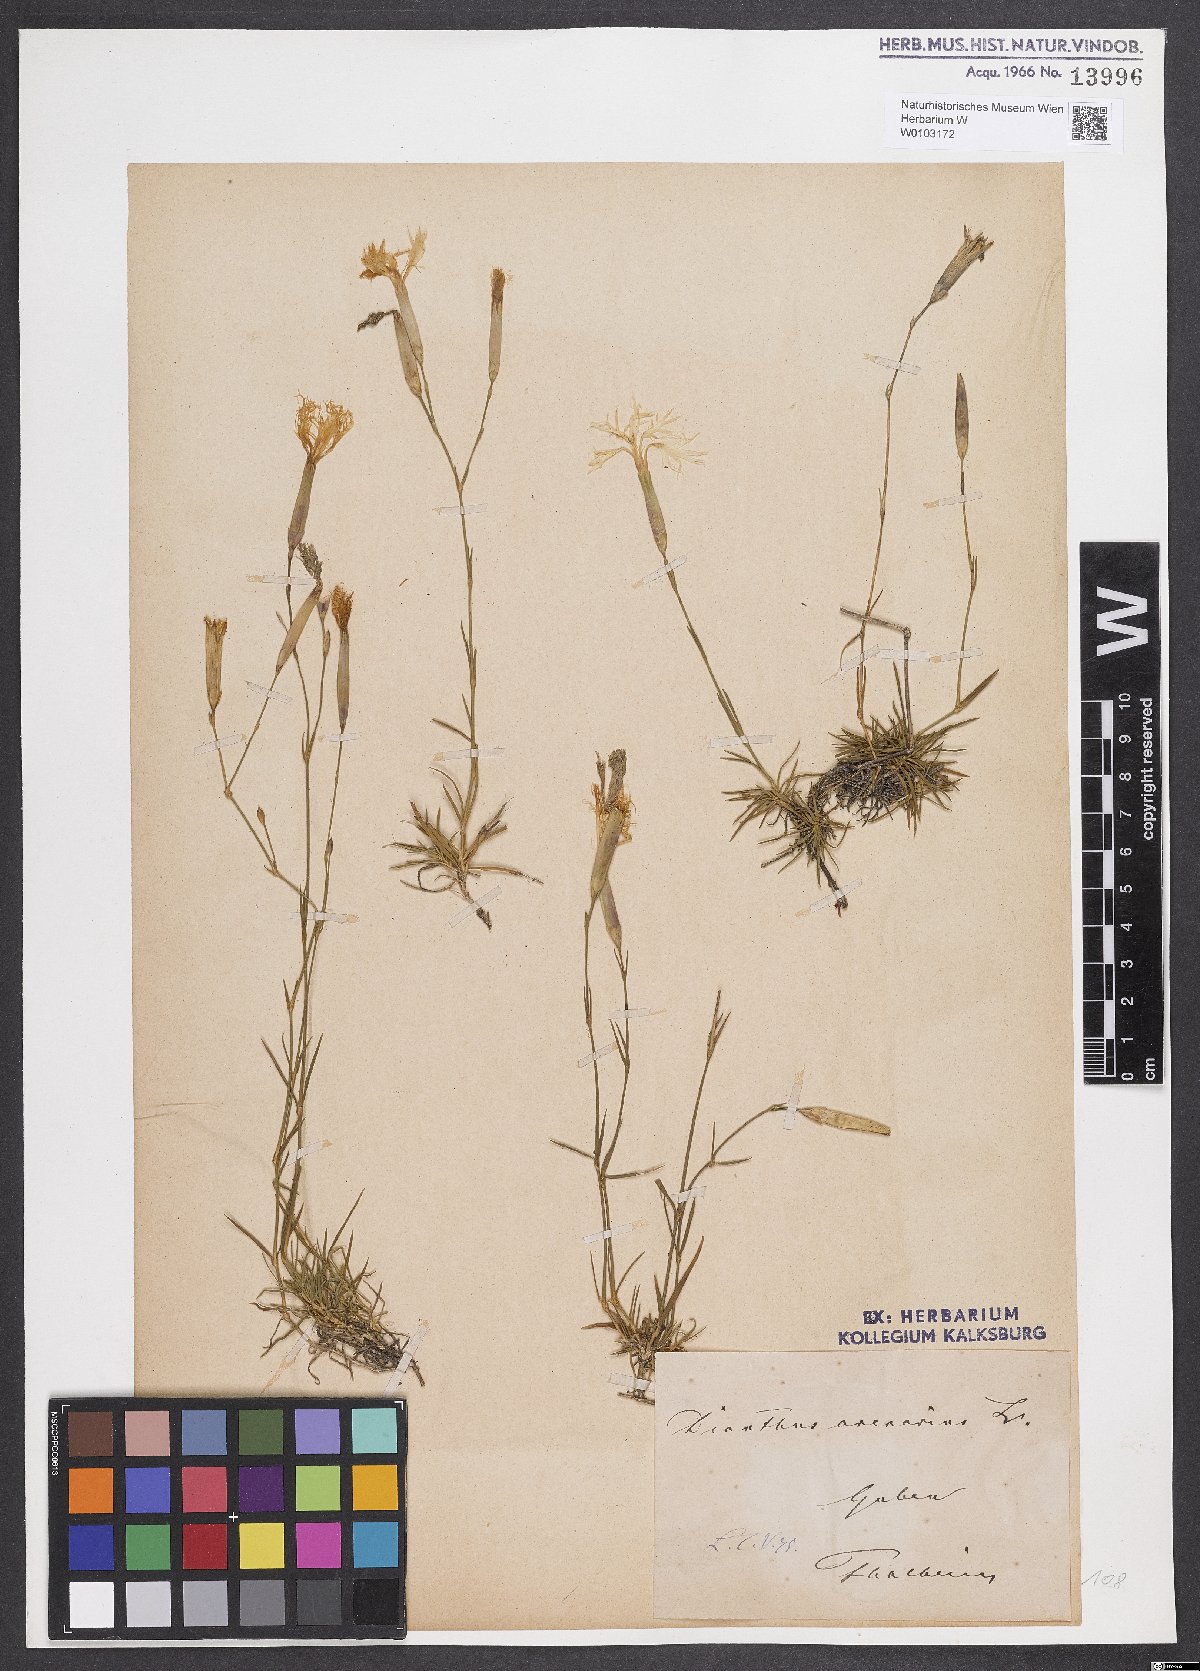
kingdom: Plantae
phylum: Tracheophyta
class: Magnoliopsida
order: Caryophyllales
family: Caryophyllaceae
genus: Dianthus
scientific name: Dianthus arenarius
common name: Stone pink
